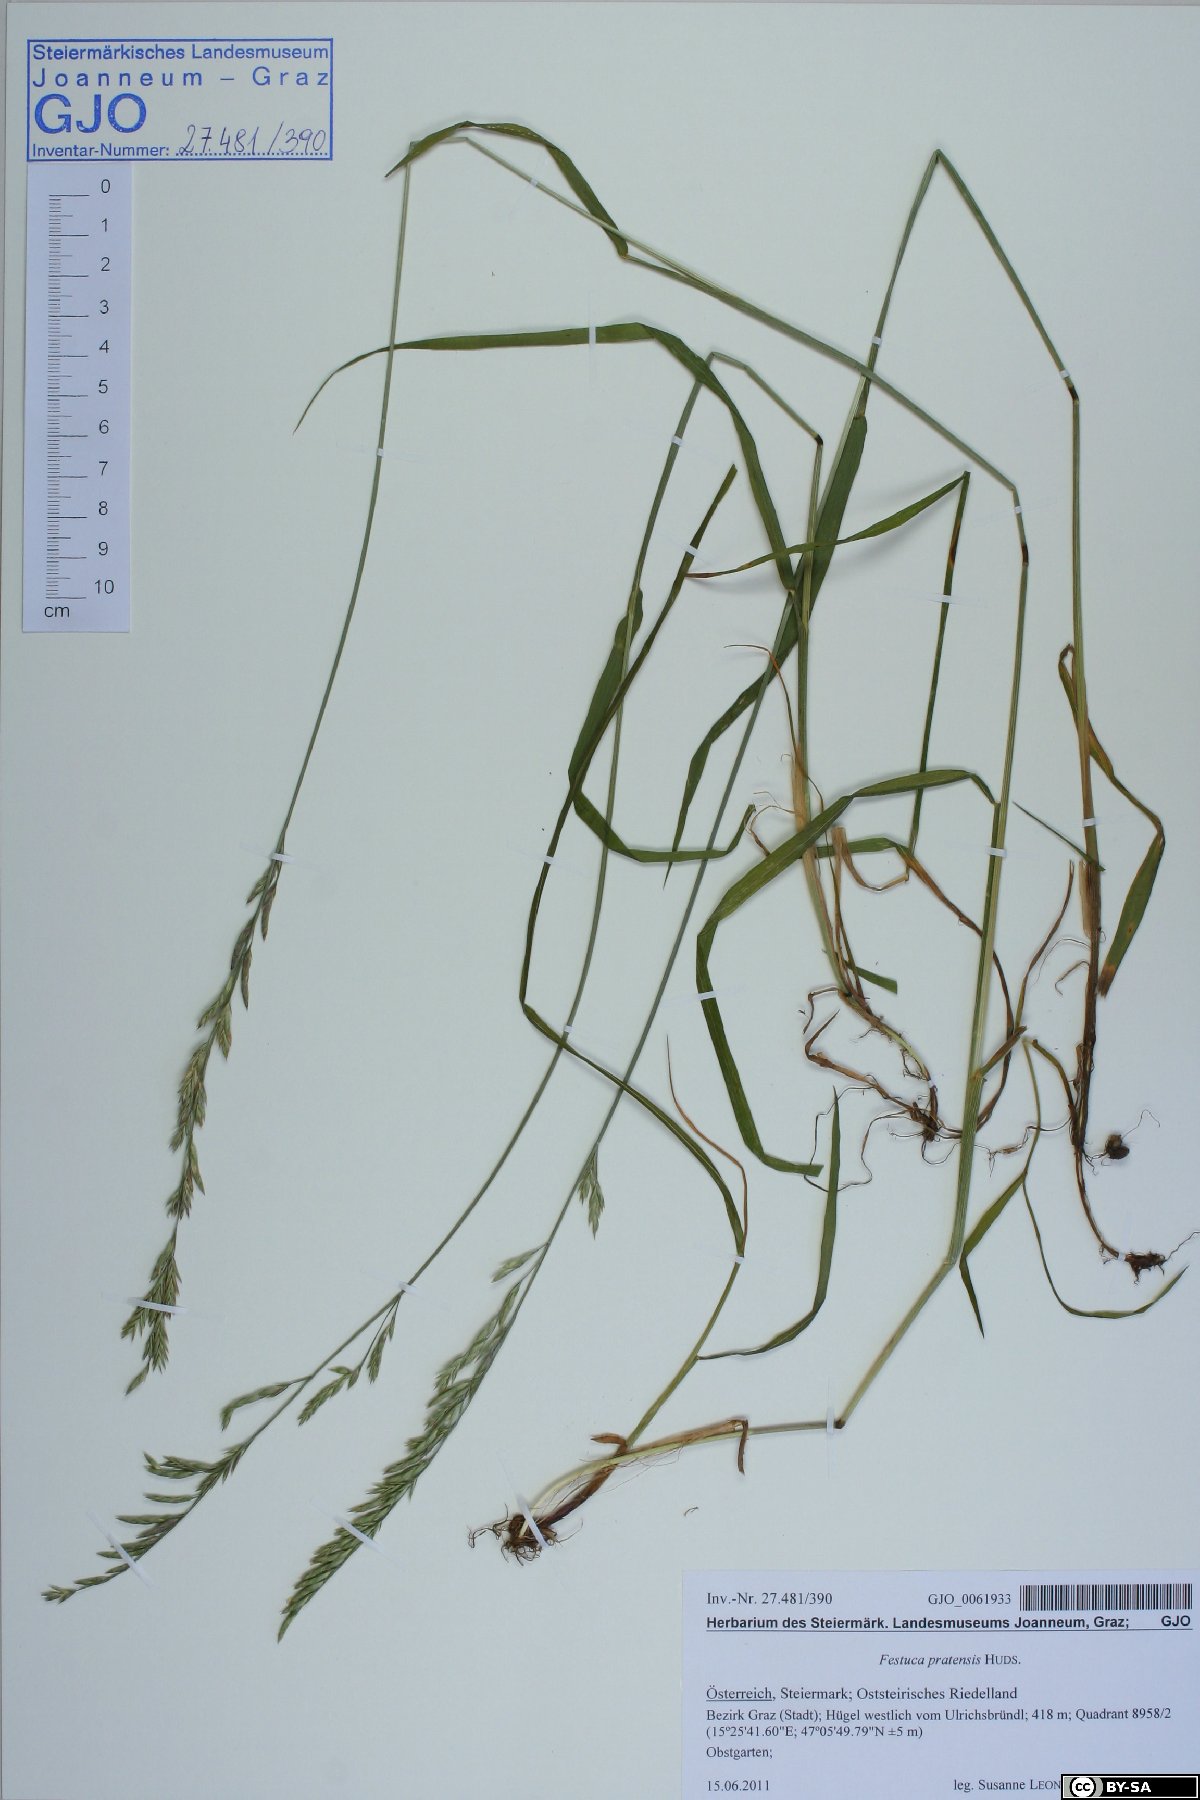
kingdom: Plantae
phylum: Tracheophyta
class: Liliopsida
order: Poales
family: Poaceae
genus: Lolium
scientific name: Lolium pratense
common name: Dover grass
